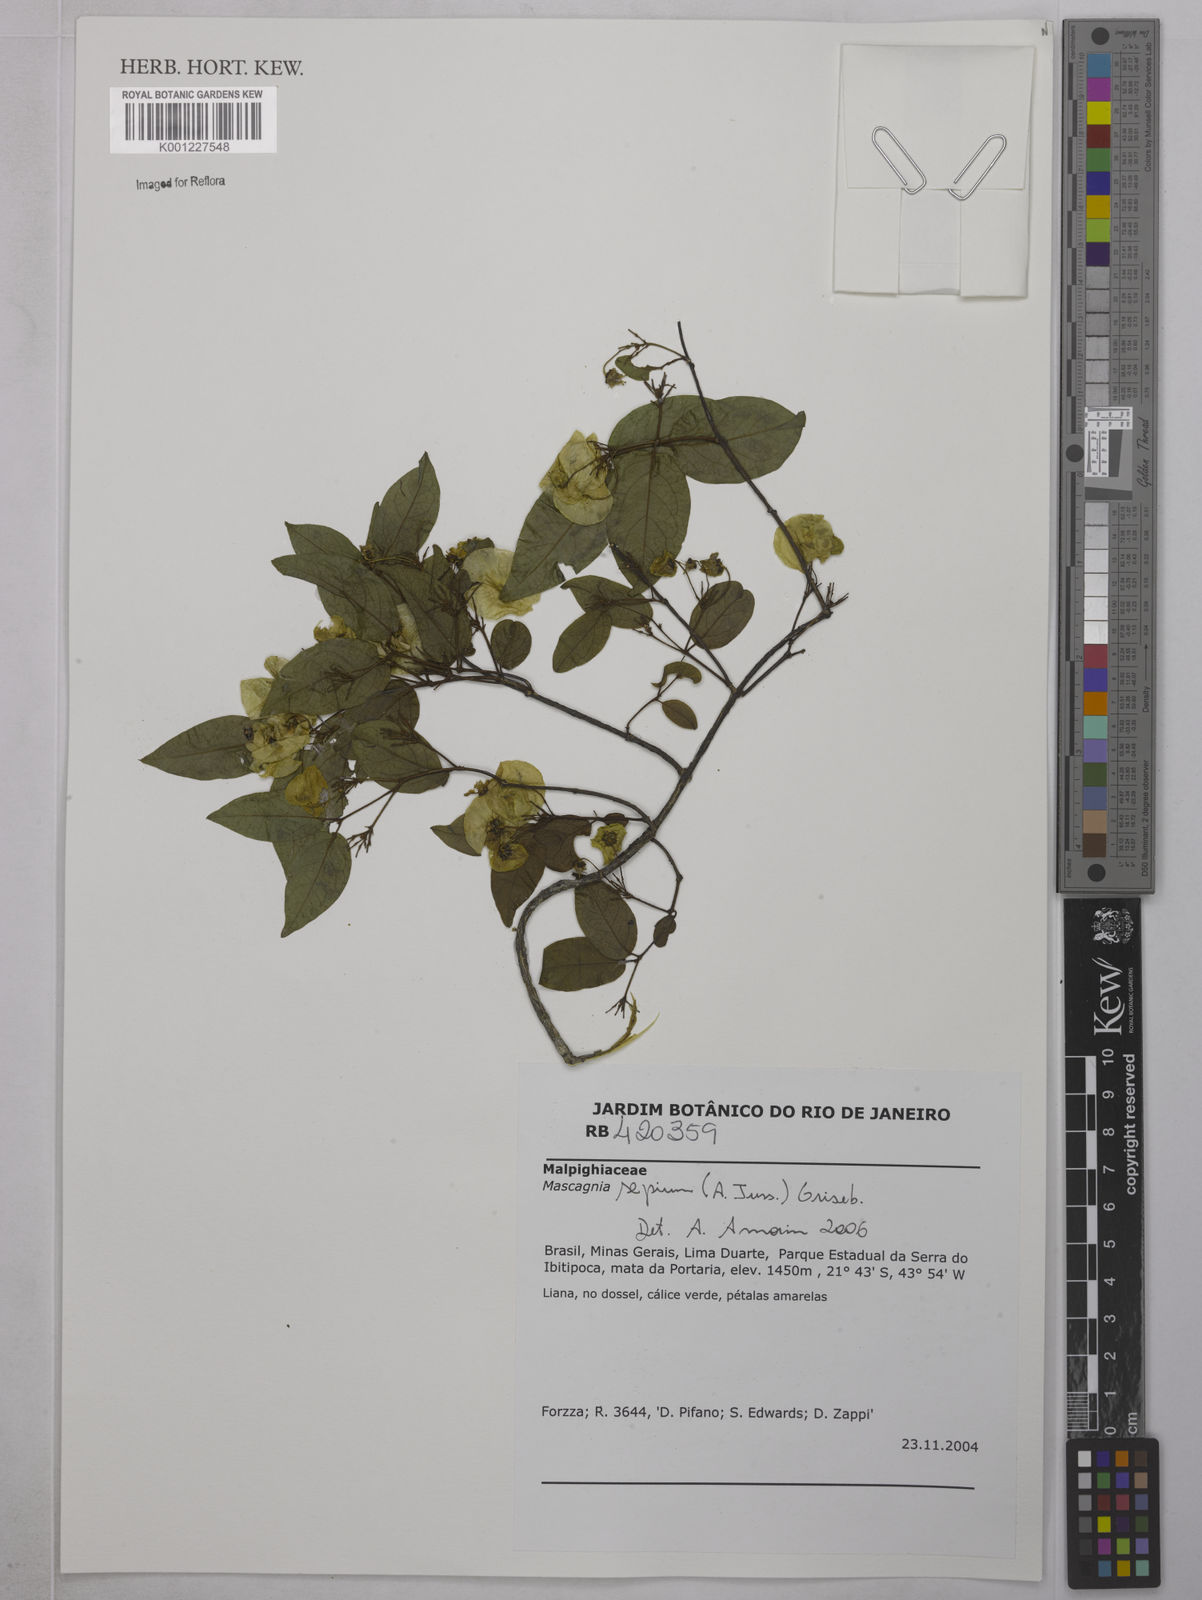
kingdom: Plantae
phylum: Tracheophyta
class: Magnoliopsida
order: Malpighiales
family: Malpighiaceae
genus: Mascagnia
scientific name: Mascagnia sepium
